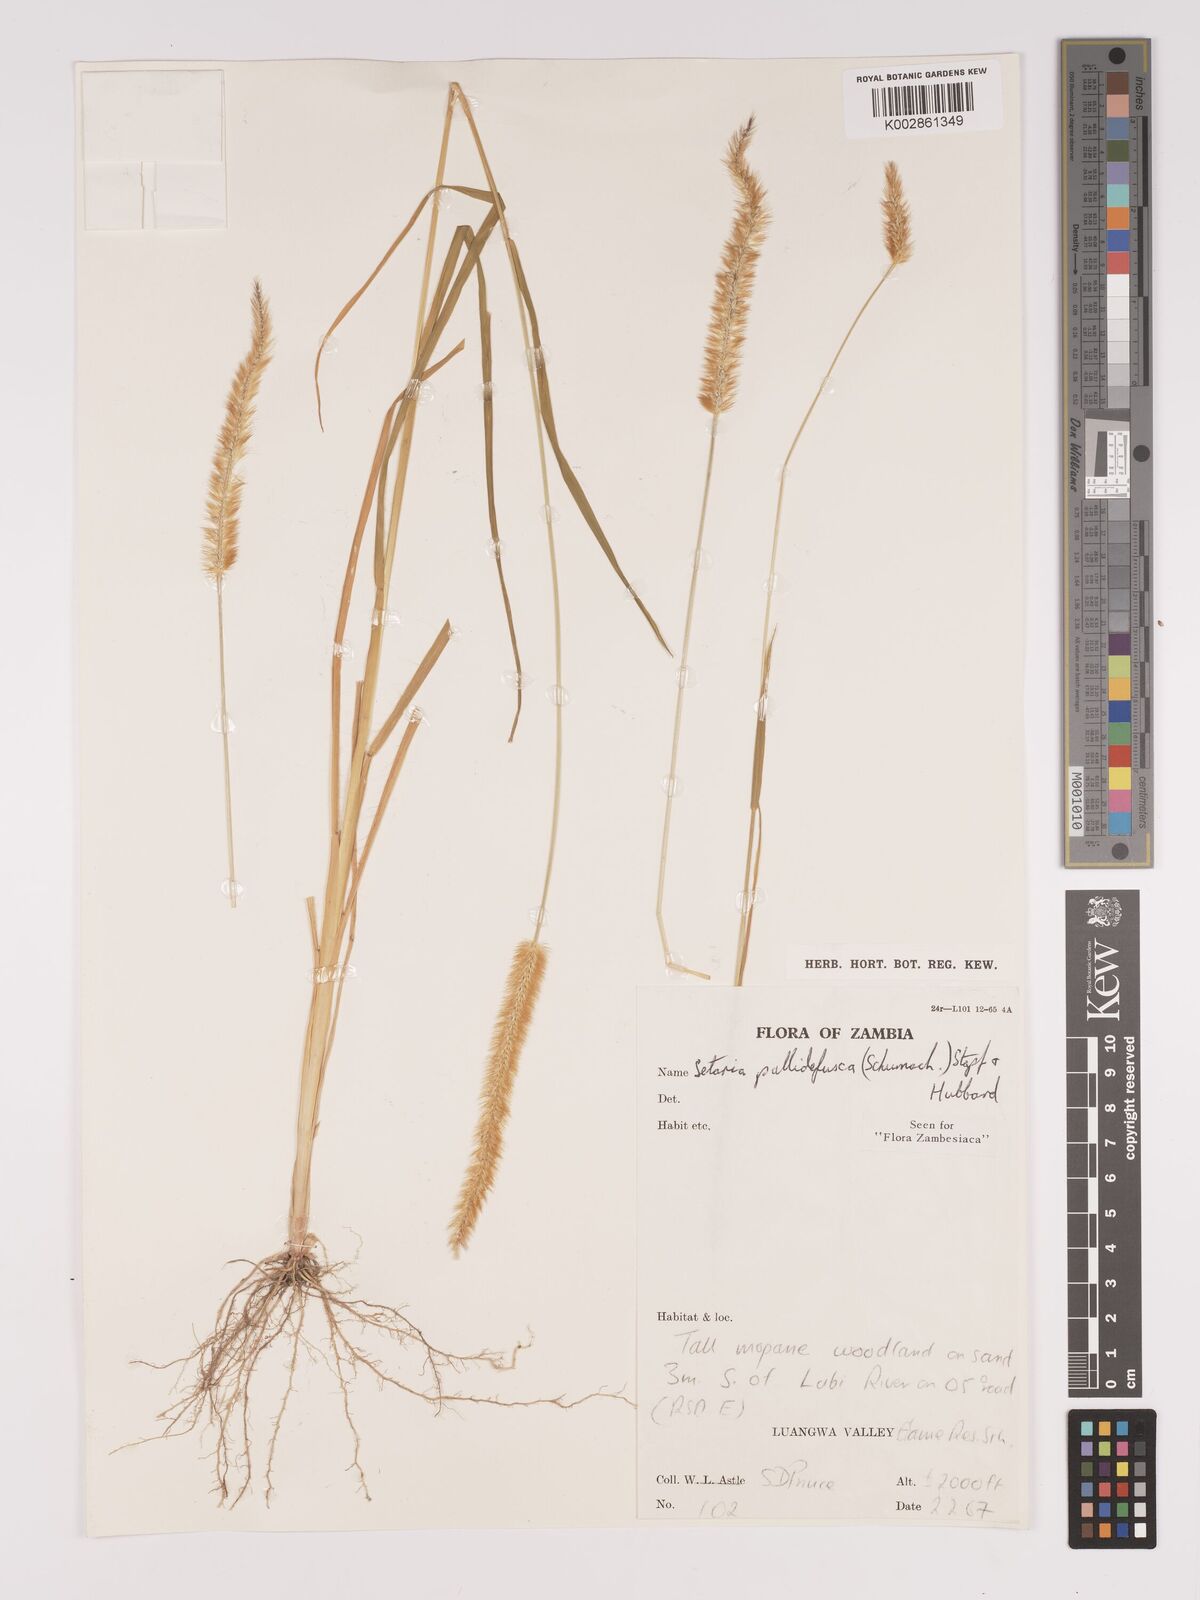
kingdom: Plantae
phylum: Tracheophyta
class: Liliopsida
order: Poales
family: Poaceae
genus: Setaria
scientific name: Setaria pumila
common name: Yellow bristle-grass
